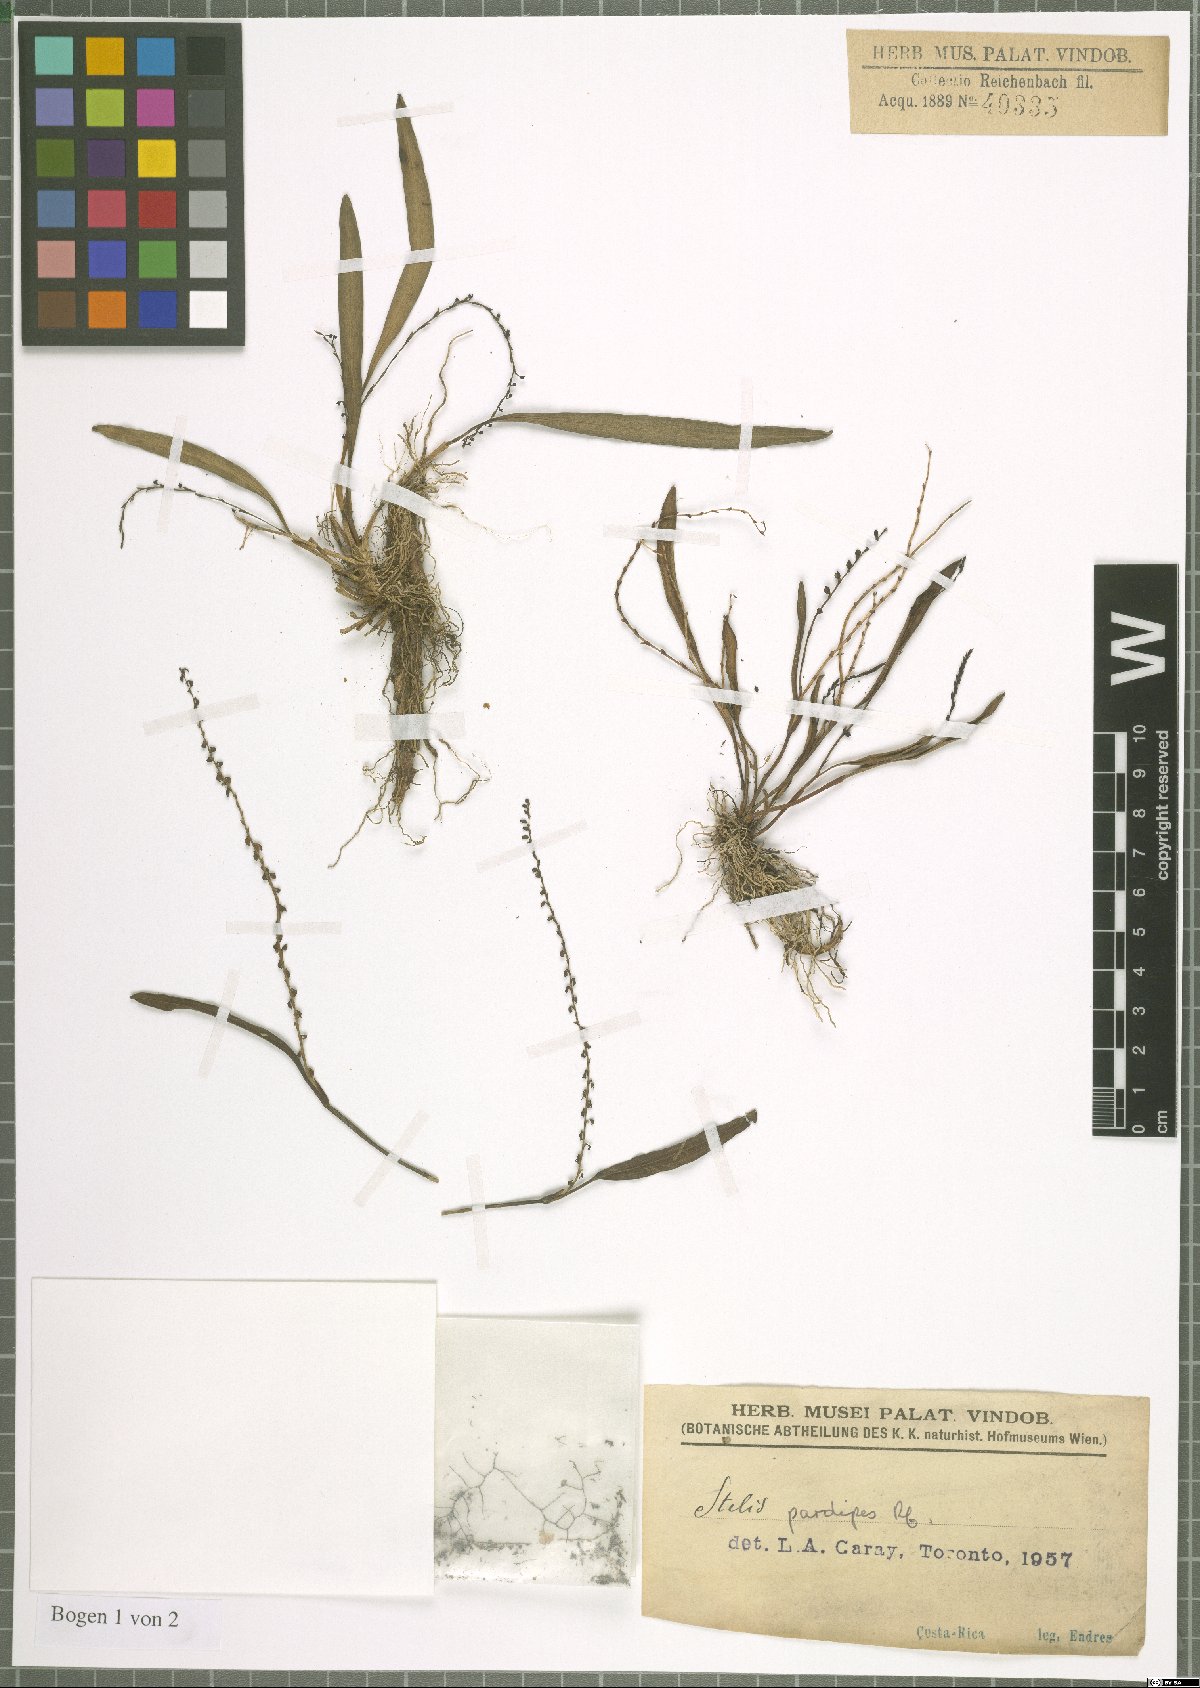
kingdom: Plantae
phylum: Tracheophyta
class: Liliopsida
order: Asparagales
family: Orchidaceae
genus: Stelis
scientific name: Stelis pardipes
